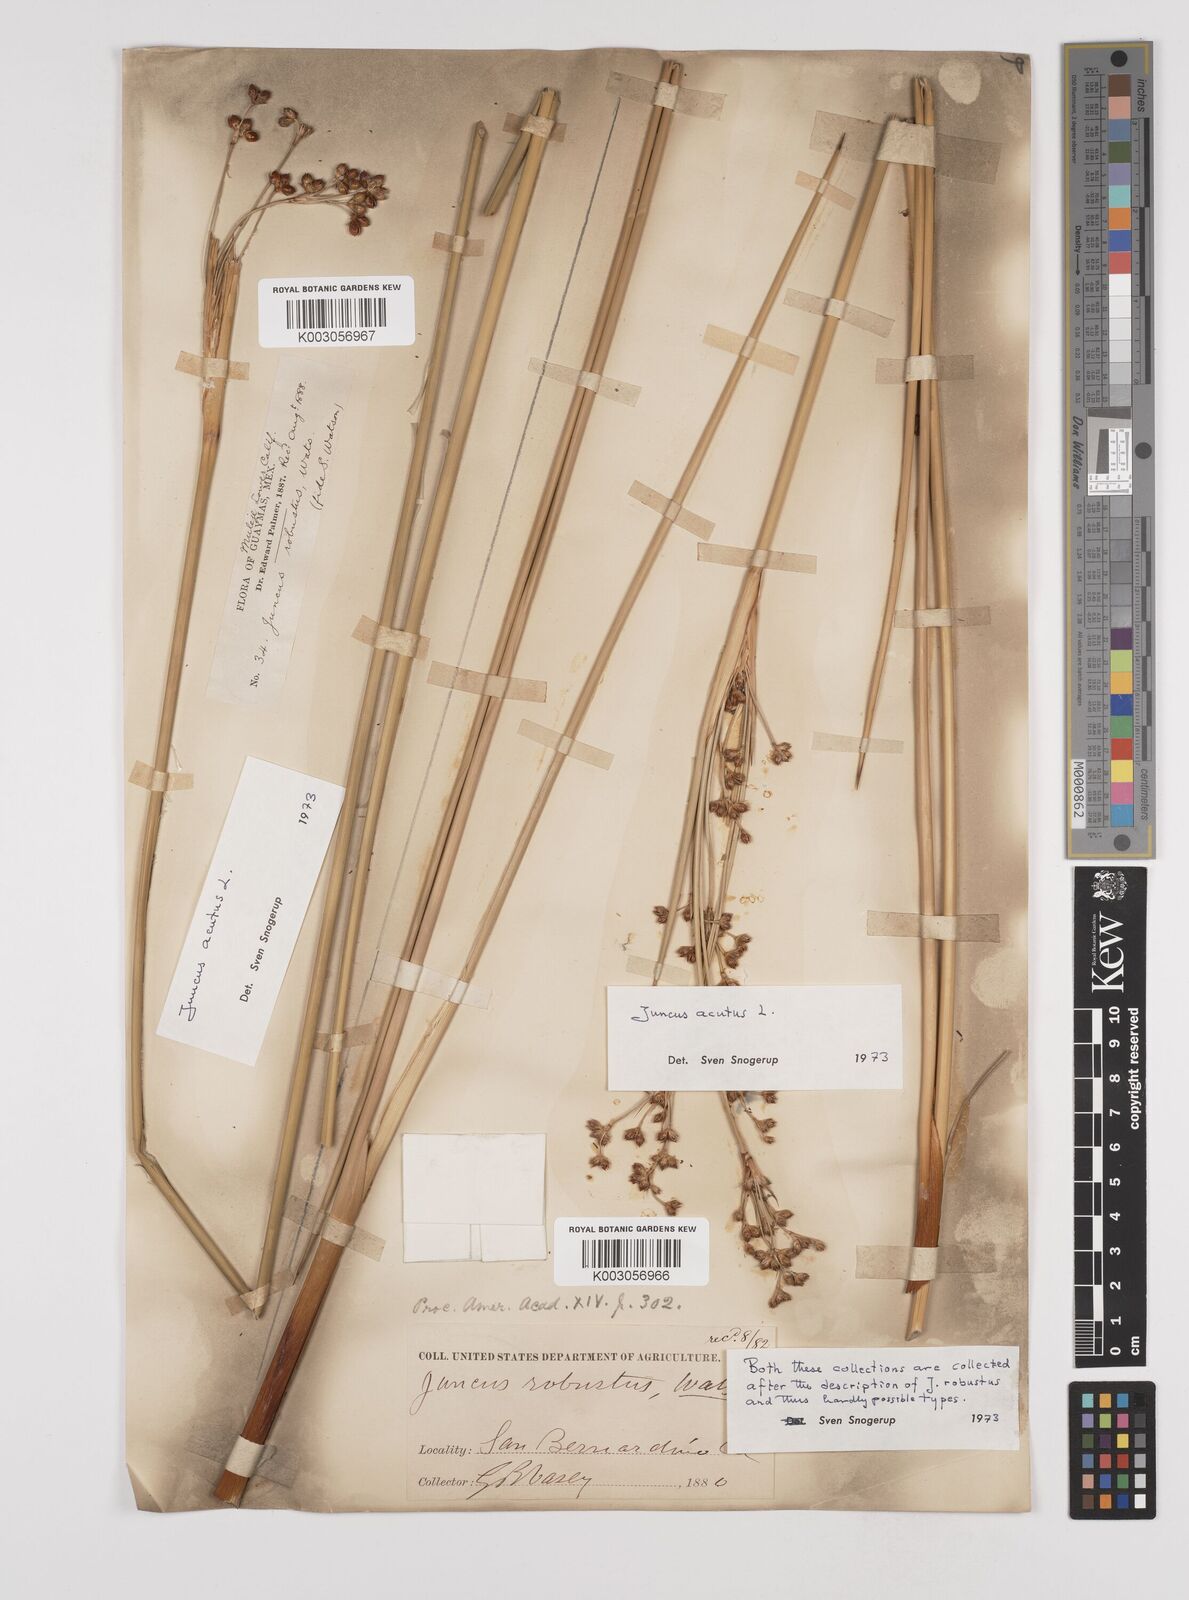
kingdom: Plantae
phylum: Tracheophyta
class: Liliopsida
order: Poales
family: Juncaceae
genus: Juncus
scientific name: Juncus acutus
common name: Sharp rush
